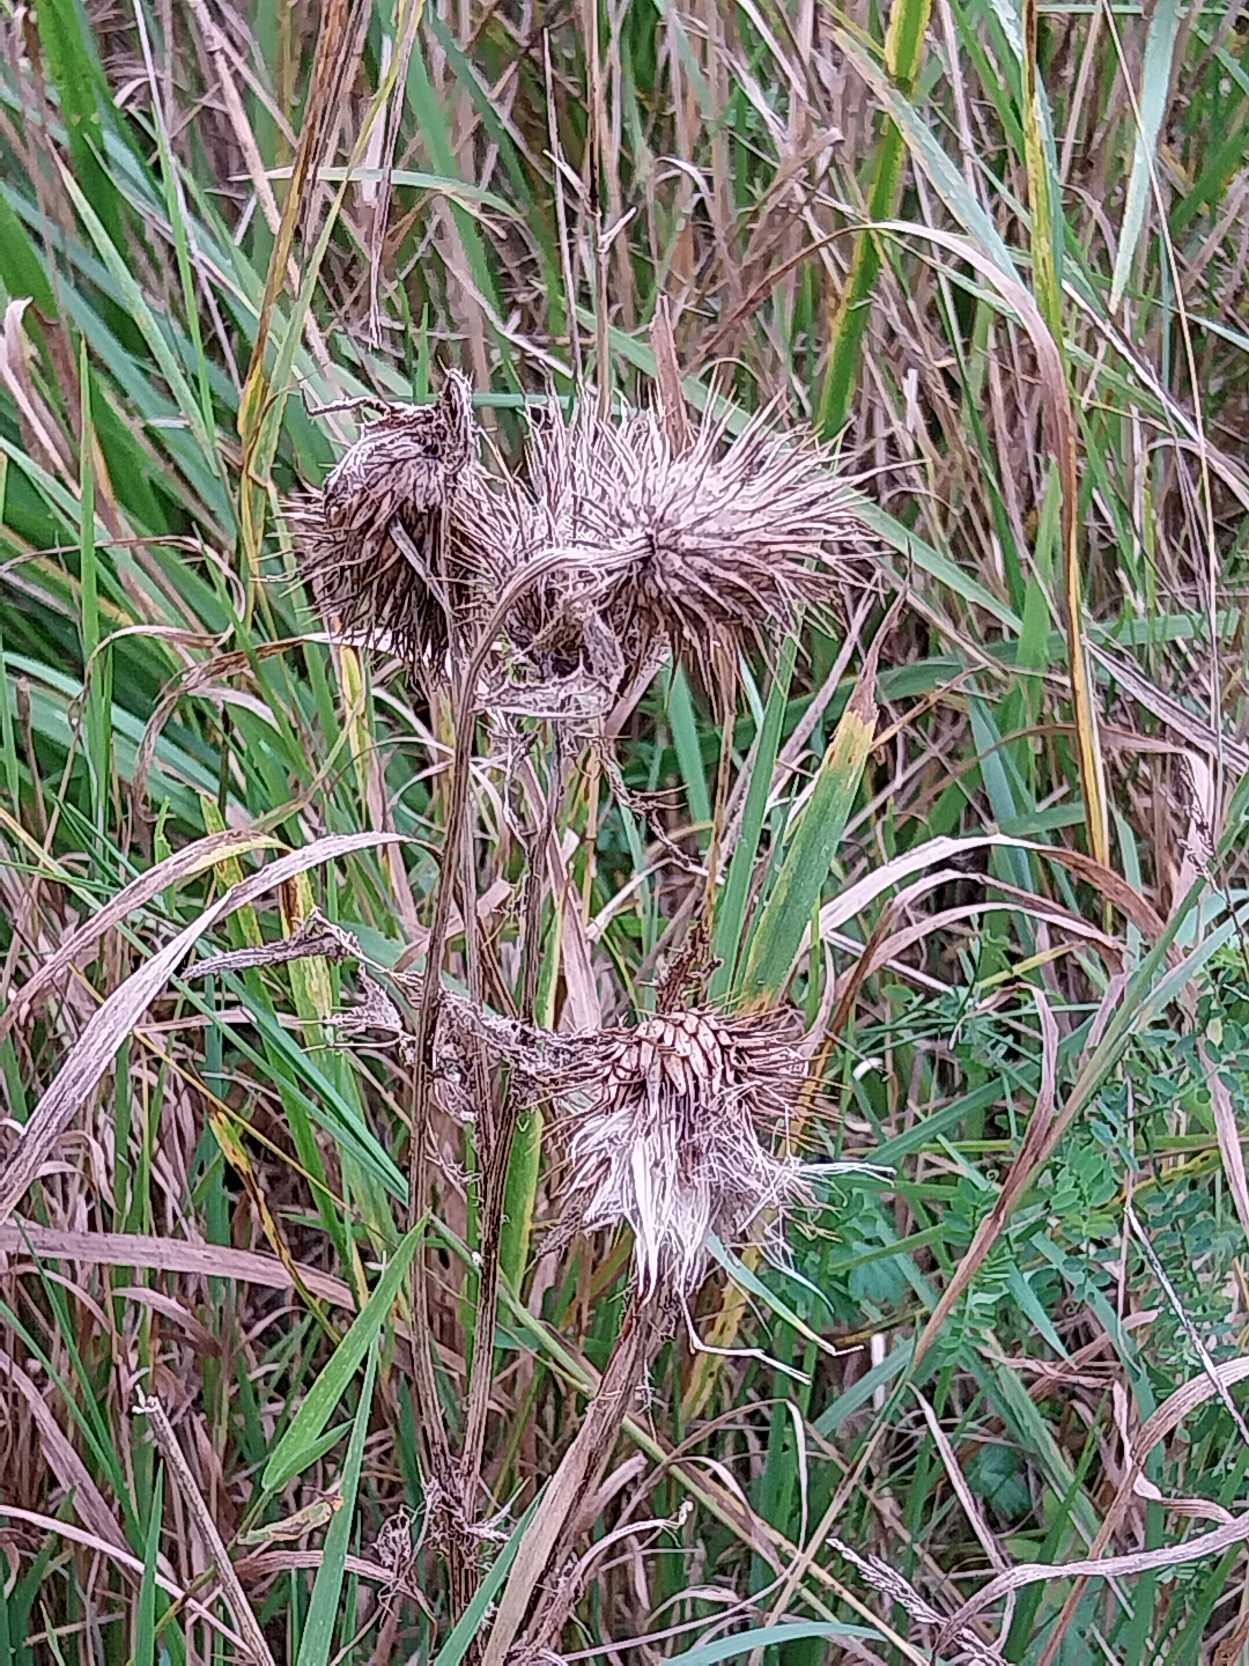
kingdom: Plantae
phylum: Tracheophyta
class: Magnoliopsida
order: Asterales
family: Asteraceae
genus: Cirsium
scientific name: Cirsium vulgare
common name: Horse-tidsel
